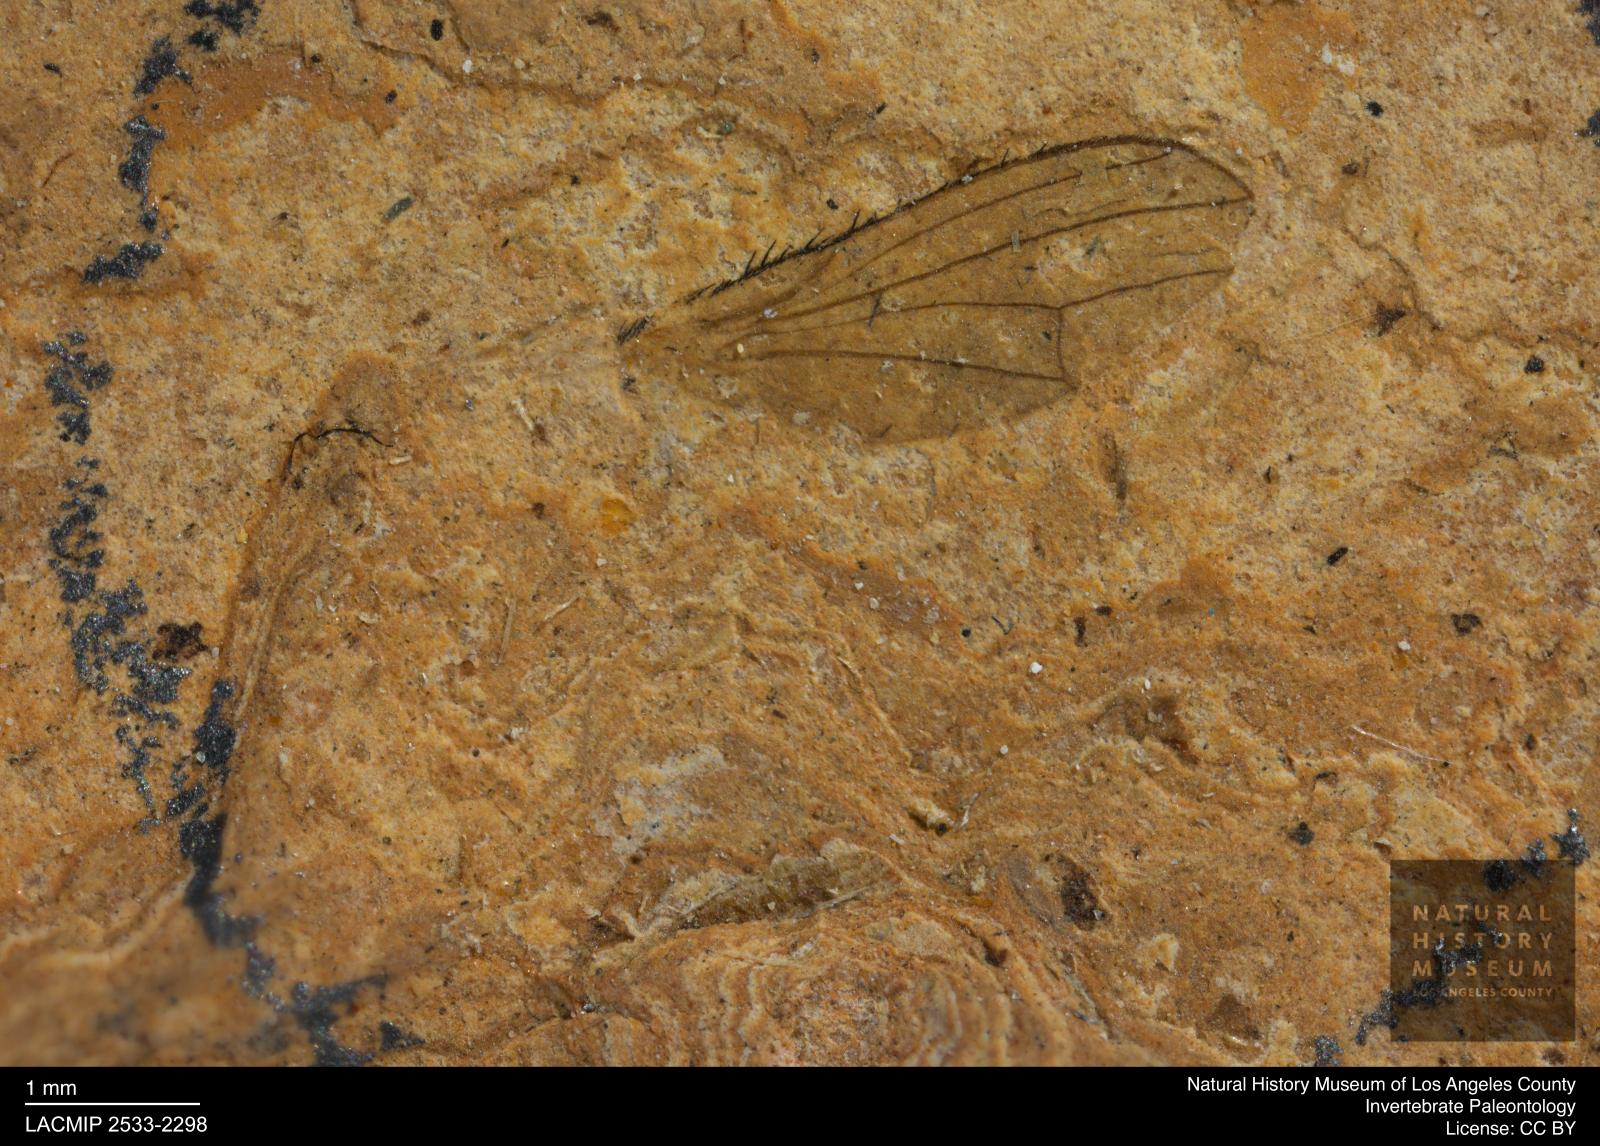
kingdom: Animalia
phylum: Arthropoda
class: Insecta
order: Diptera
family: Heleomyzidae
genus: Heleomyza
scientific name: Heleomyza Leria bauckhorni
